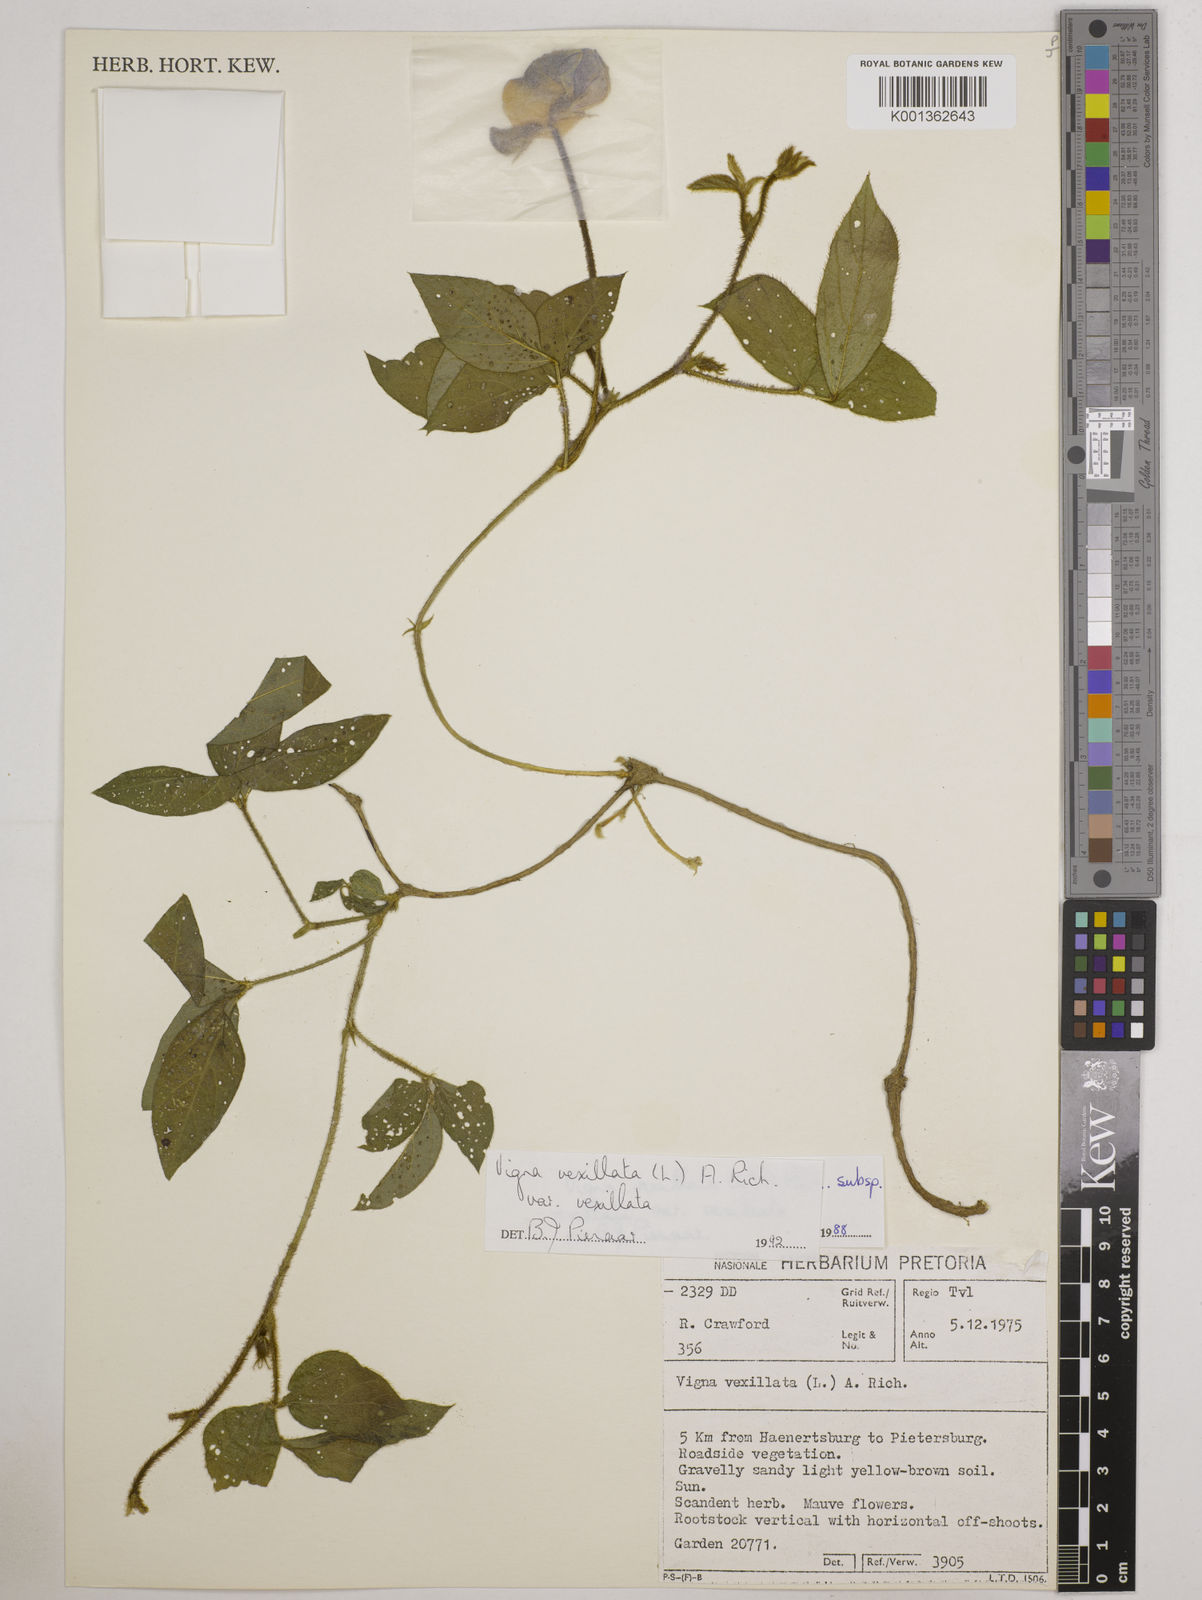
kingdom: Plantae
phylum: Tracheophyta
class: Magnoliopsida
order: Fabales
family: Fabaceae
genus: Vigna
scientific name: Vigna vexillata
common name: Zombi pea
